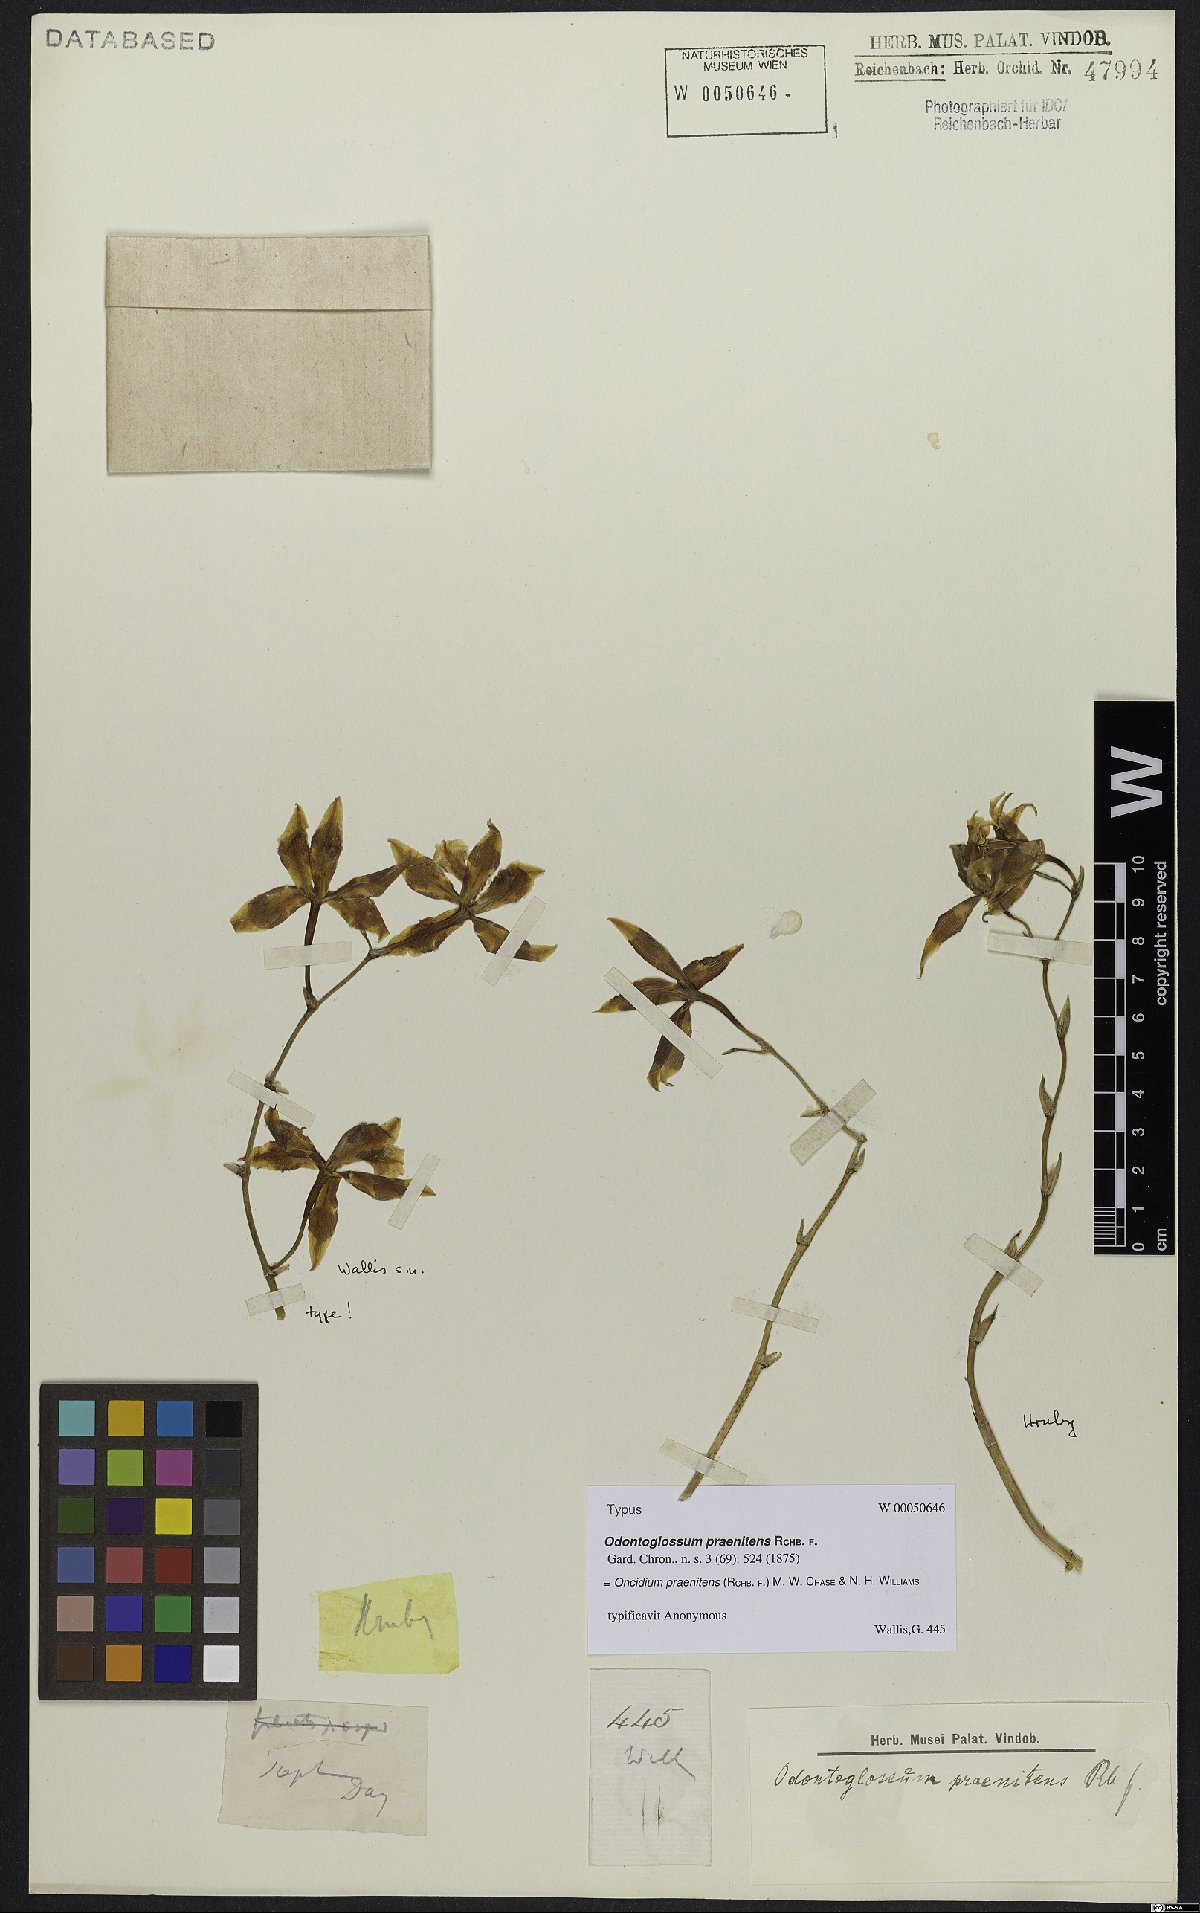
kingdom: Plantae
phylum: Tracheophyta
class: Liliopsida
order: Asparagales
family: Orchidaceae
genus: Oncidium
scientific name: Oncidium praenitens
